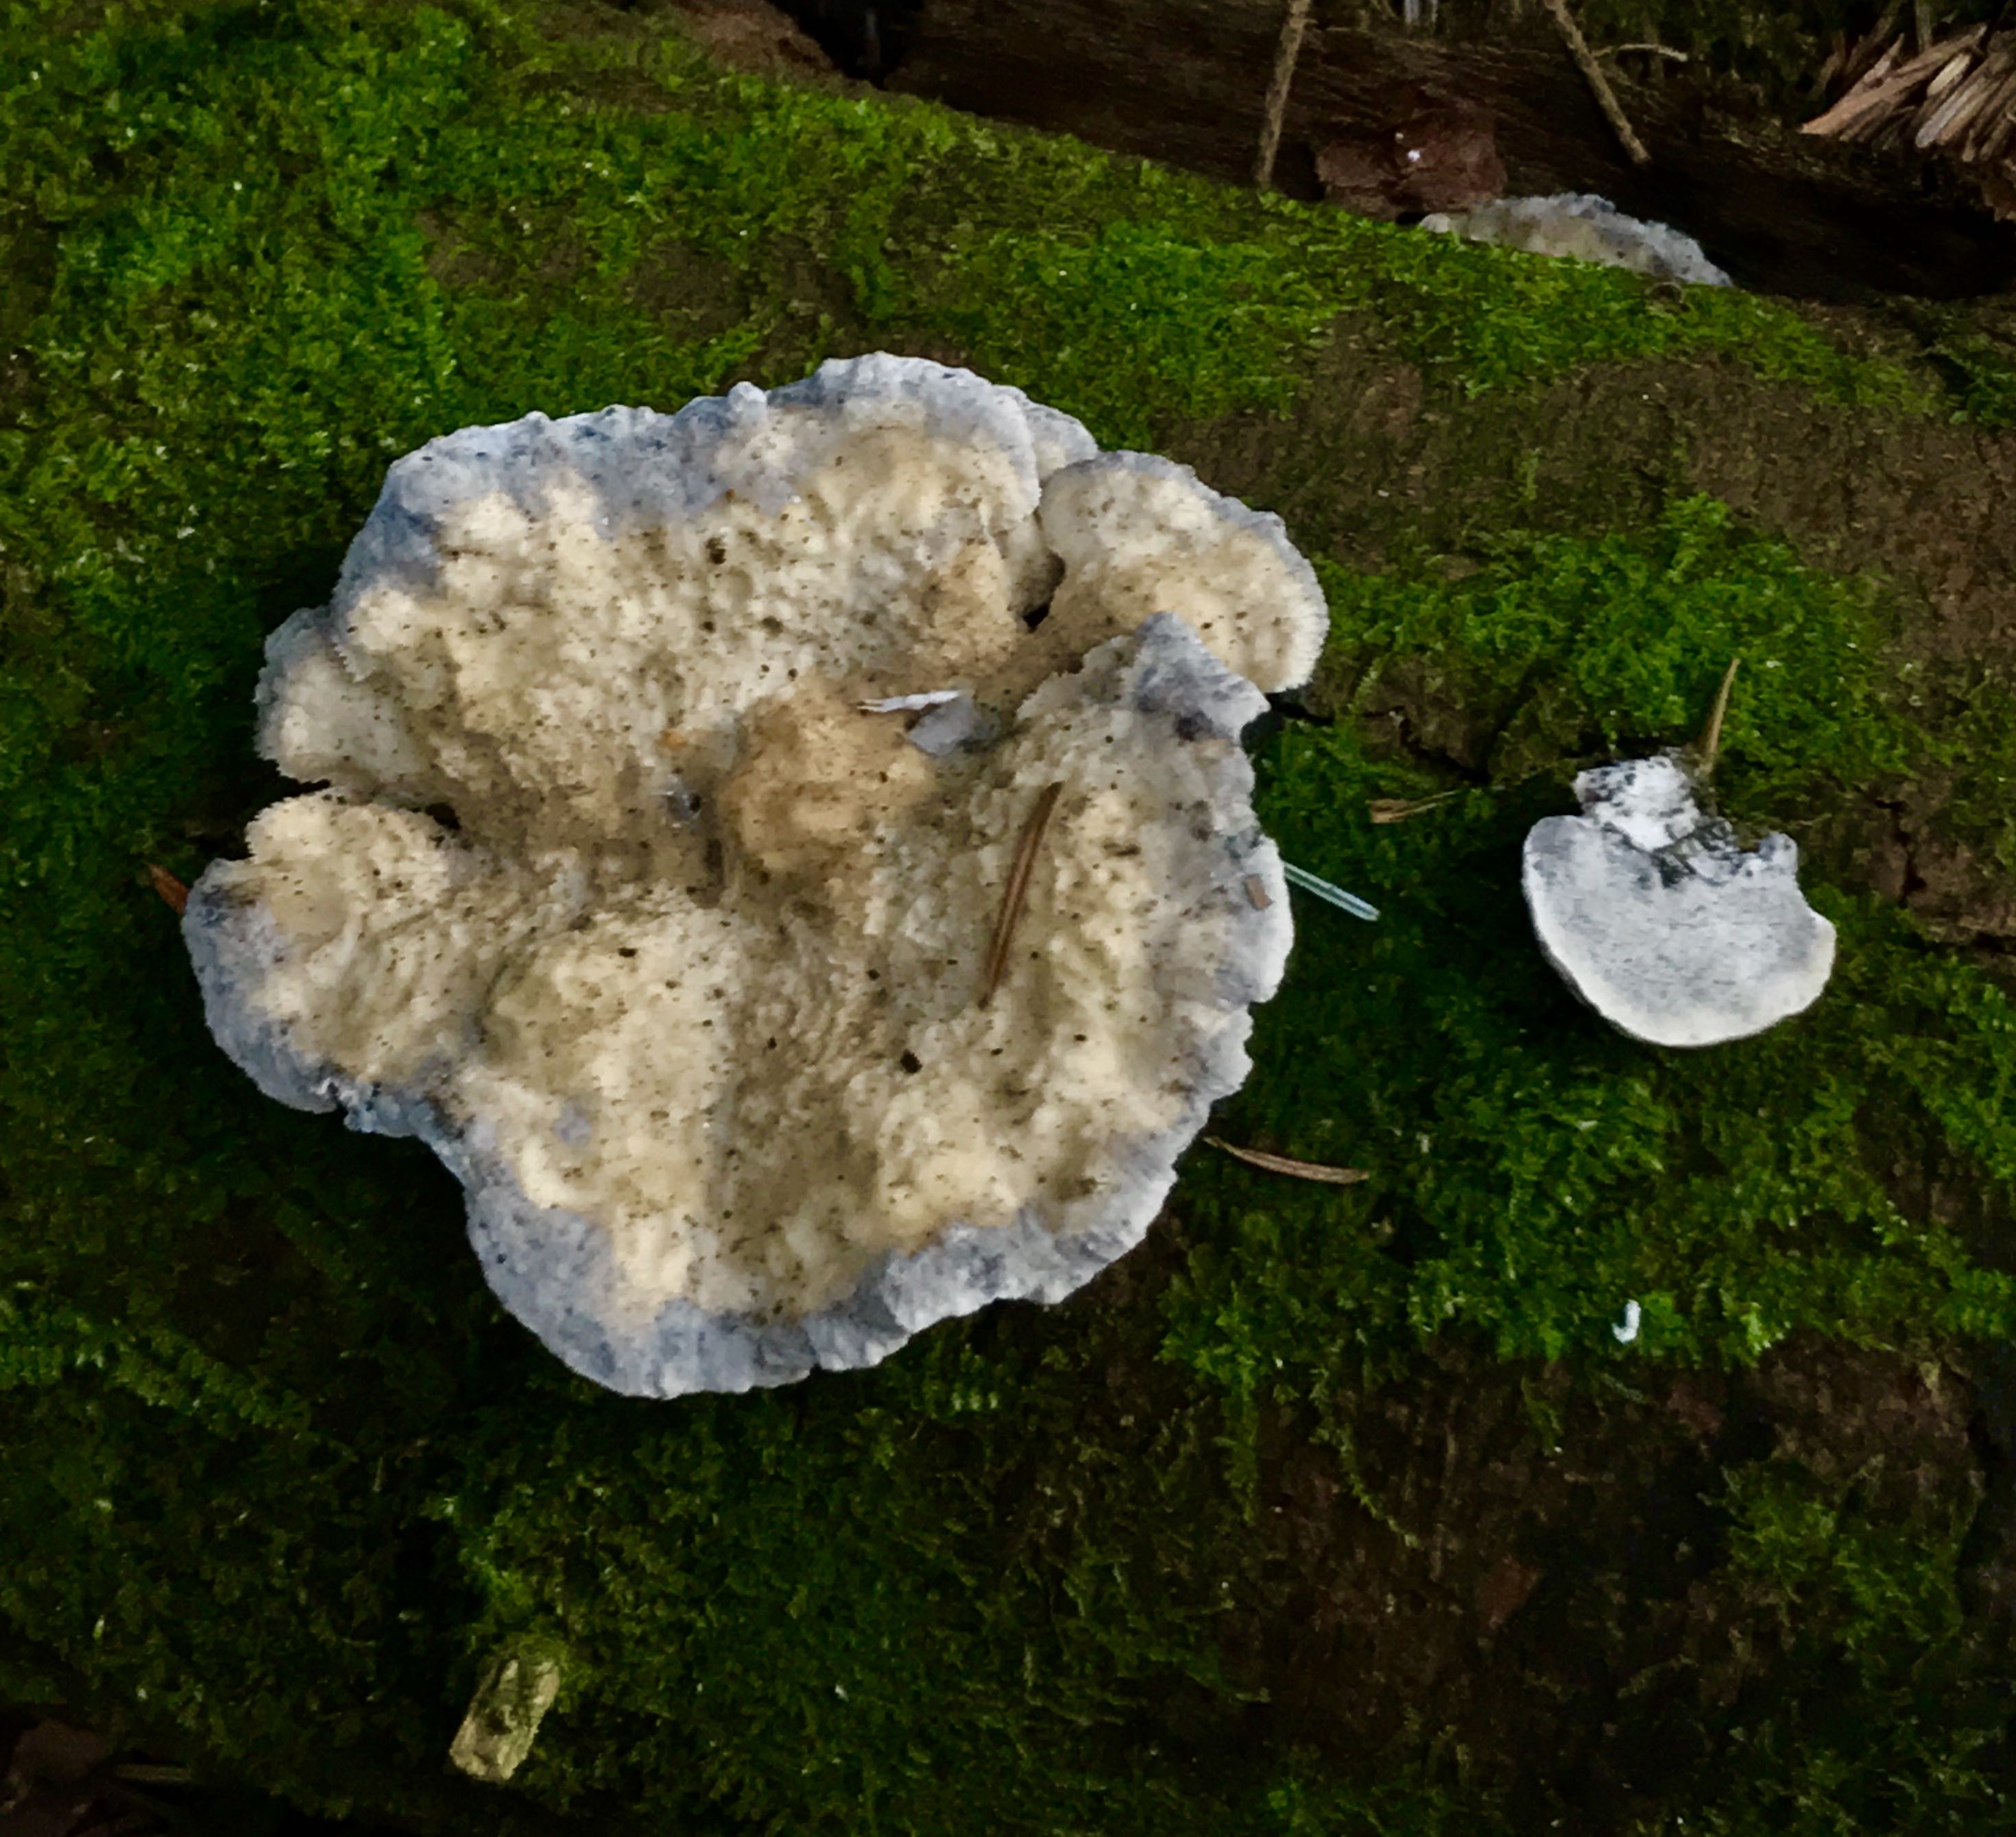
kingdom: Fungi
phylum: Basidiomycota
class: Agaricomycetes
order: Polyporales
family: Polyporaceae
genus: Cyanosporus
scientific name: Cyanosporus caesius
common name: blålig kødporesvamp
